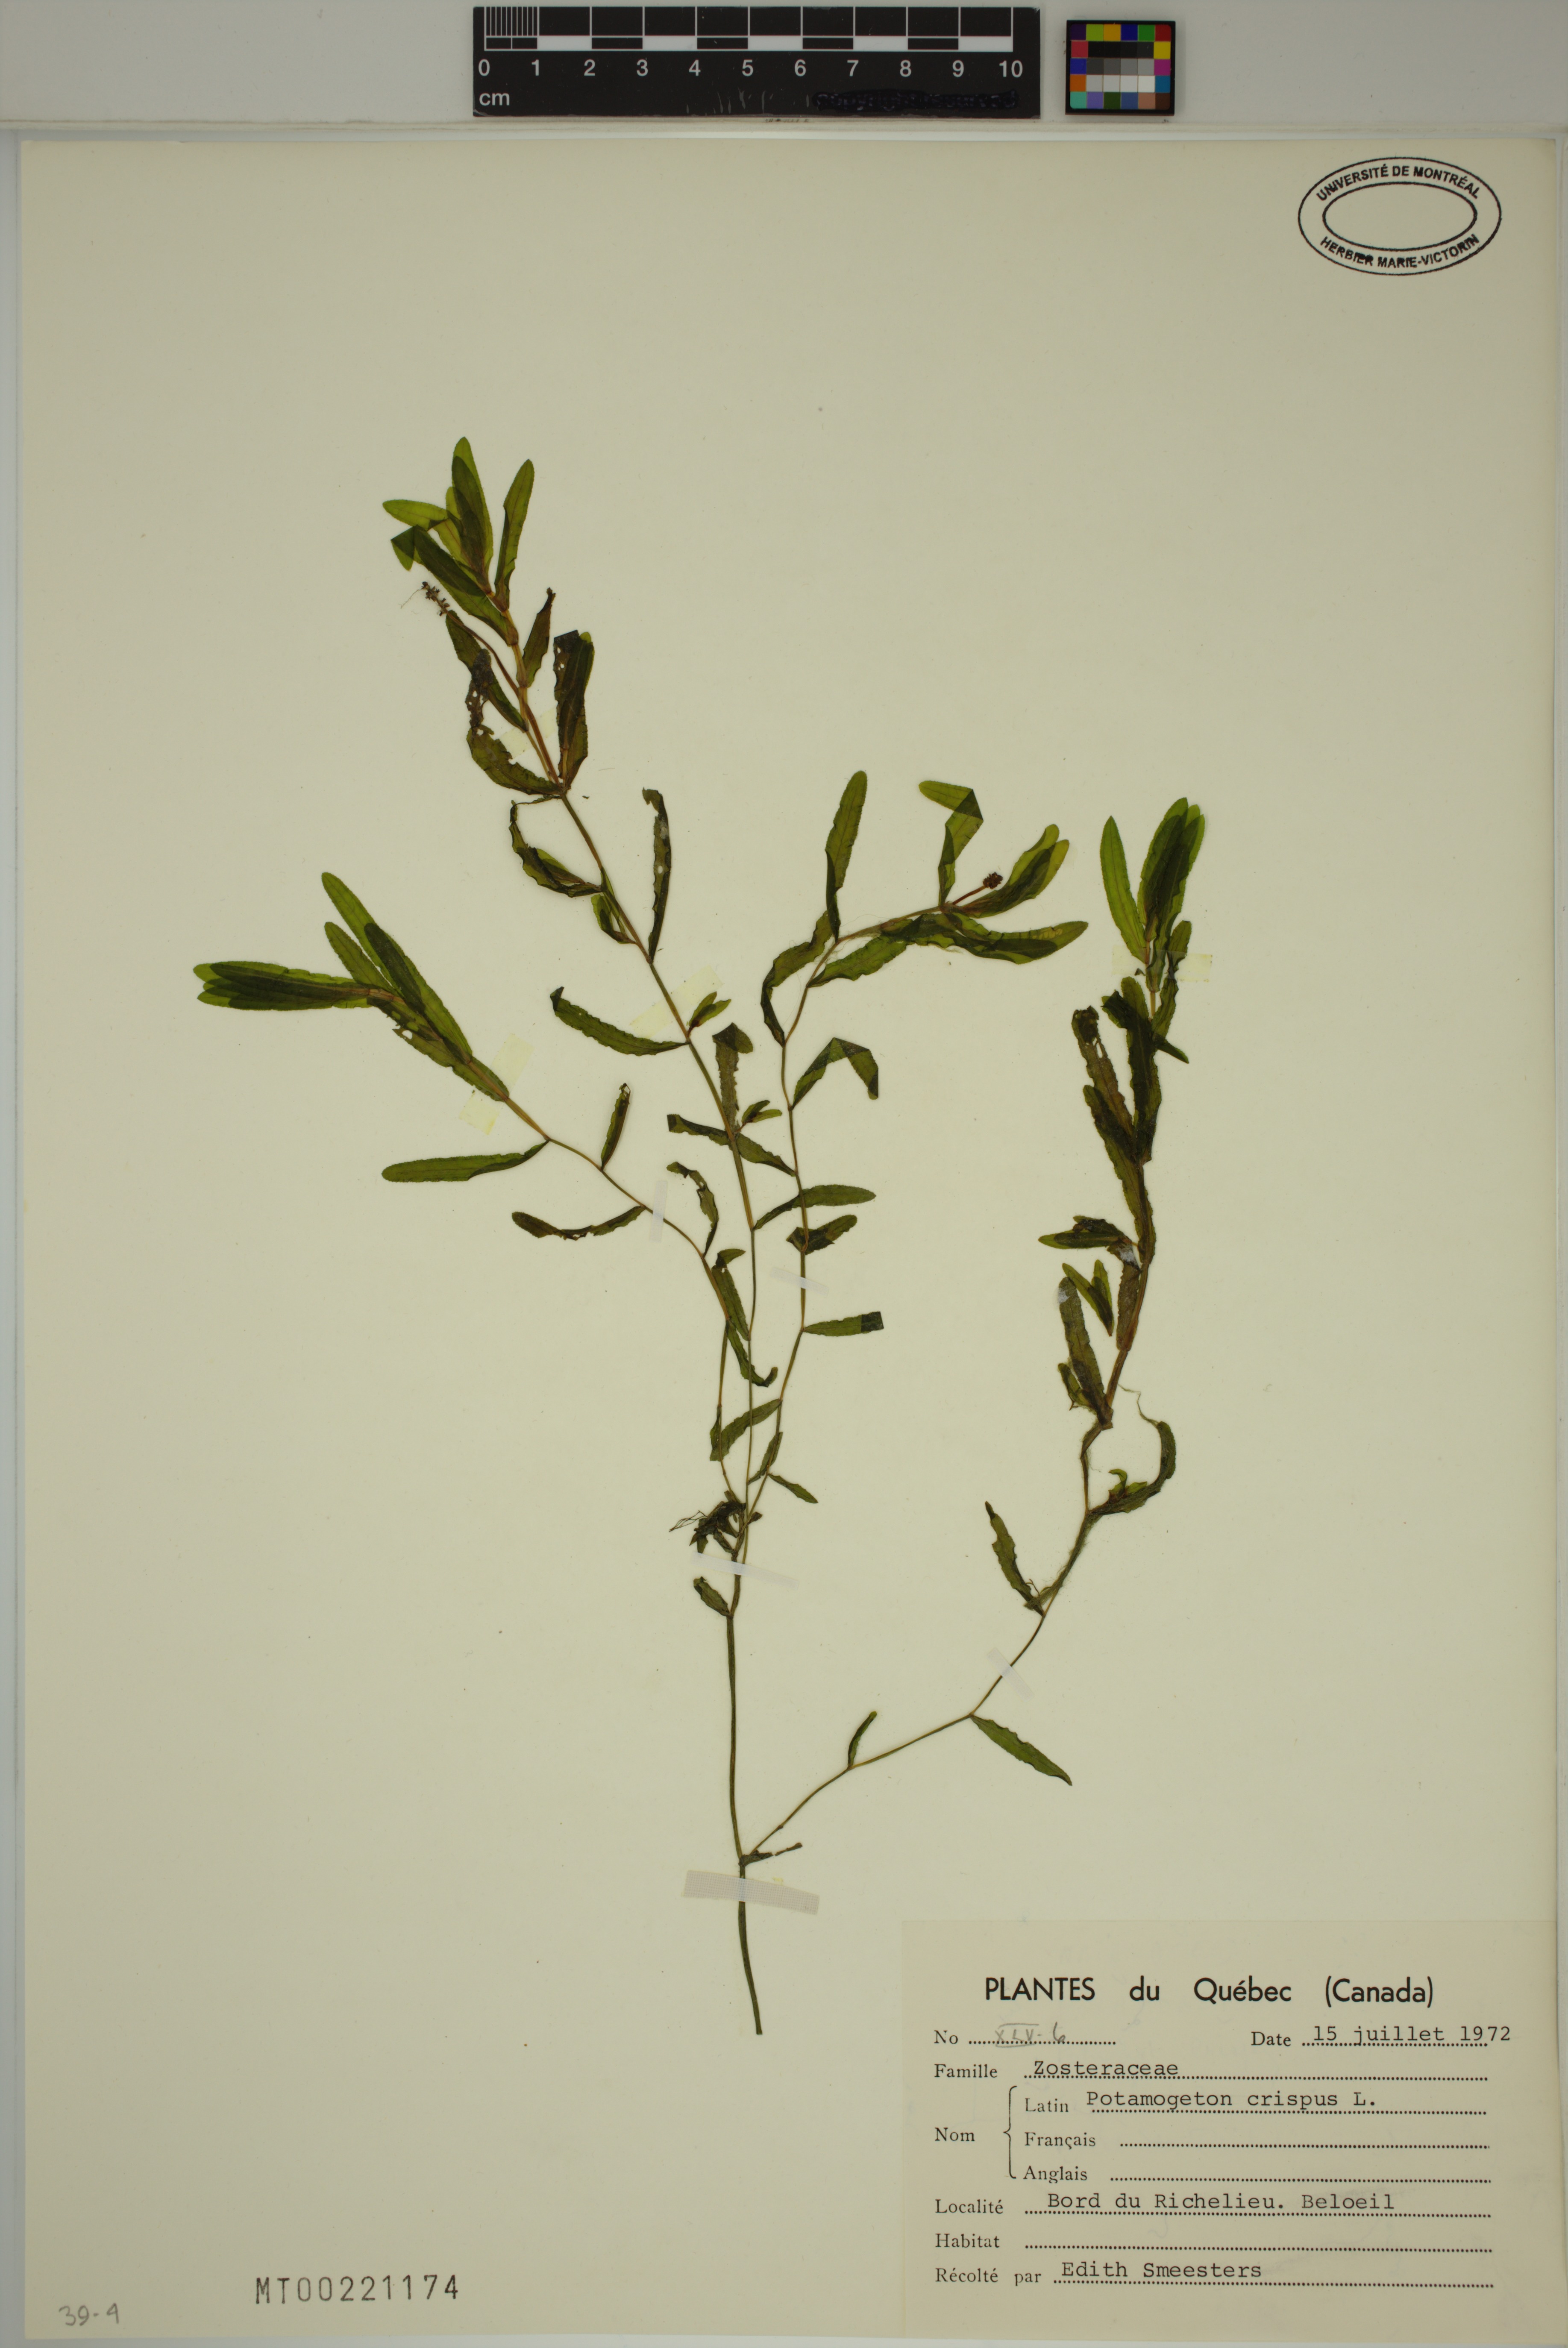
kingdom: Plantae
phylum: Tracheophyta
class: Liliopsida
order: Alismatales
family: Potamogetonaceae
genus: Potamogeton
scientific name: Potamogeton crispus
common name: Curled pondweed
